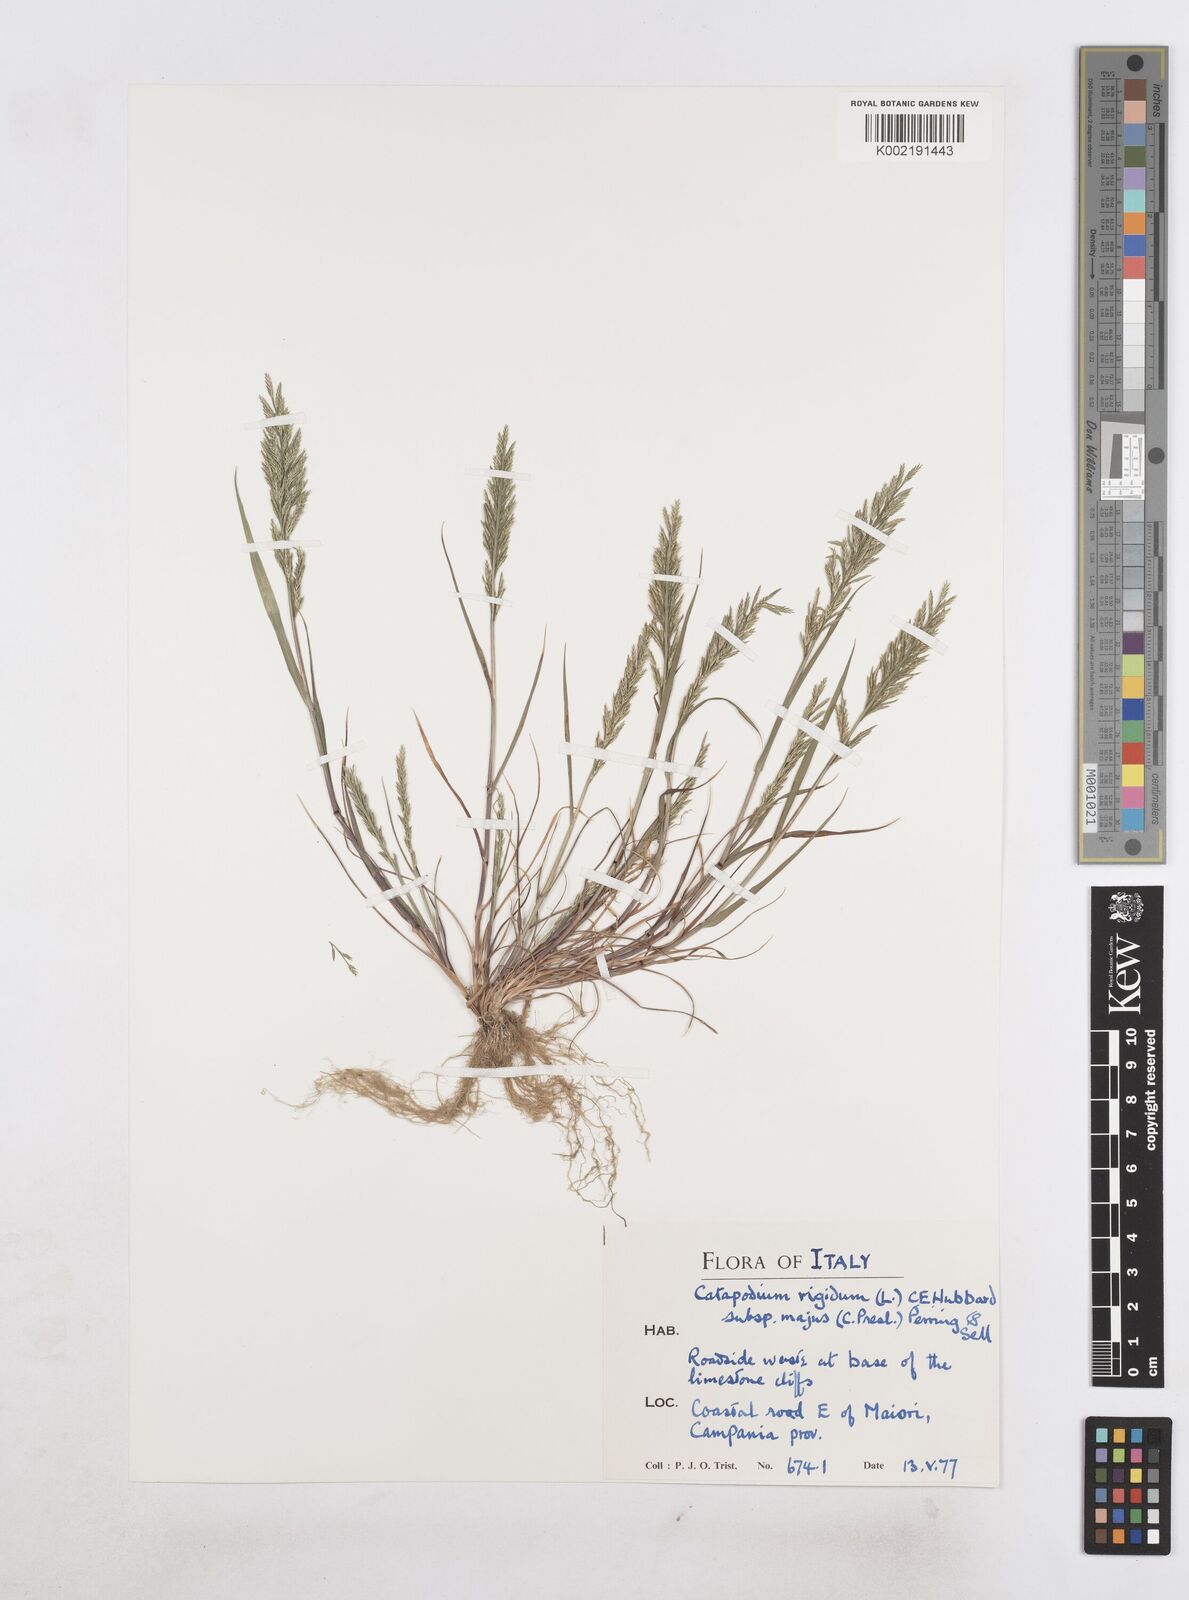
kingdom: Plantae
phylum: Tracheophyta
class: Liliopsida
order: Poales
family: Poaceae
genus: Catapodium
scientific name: Catapodium rigidum
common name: Fern-grass
